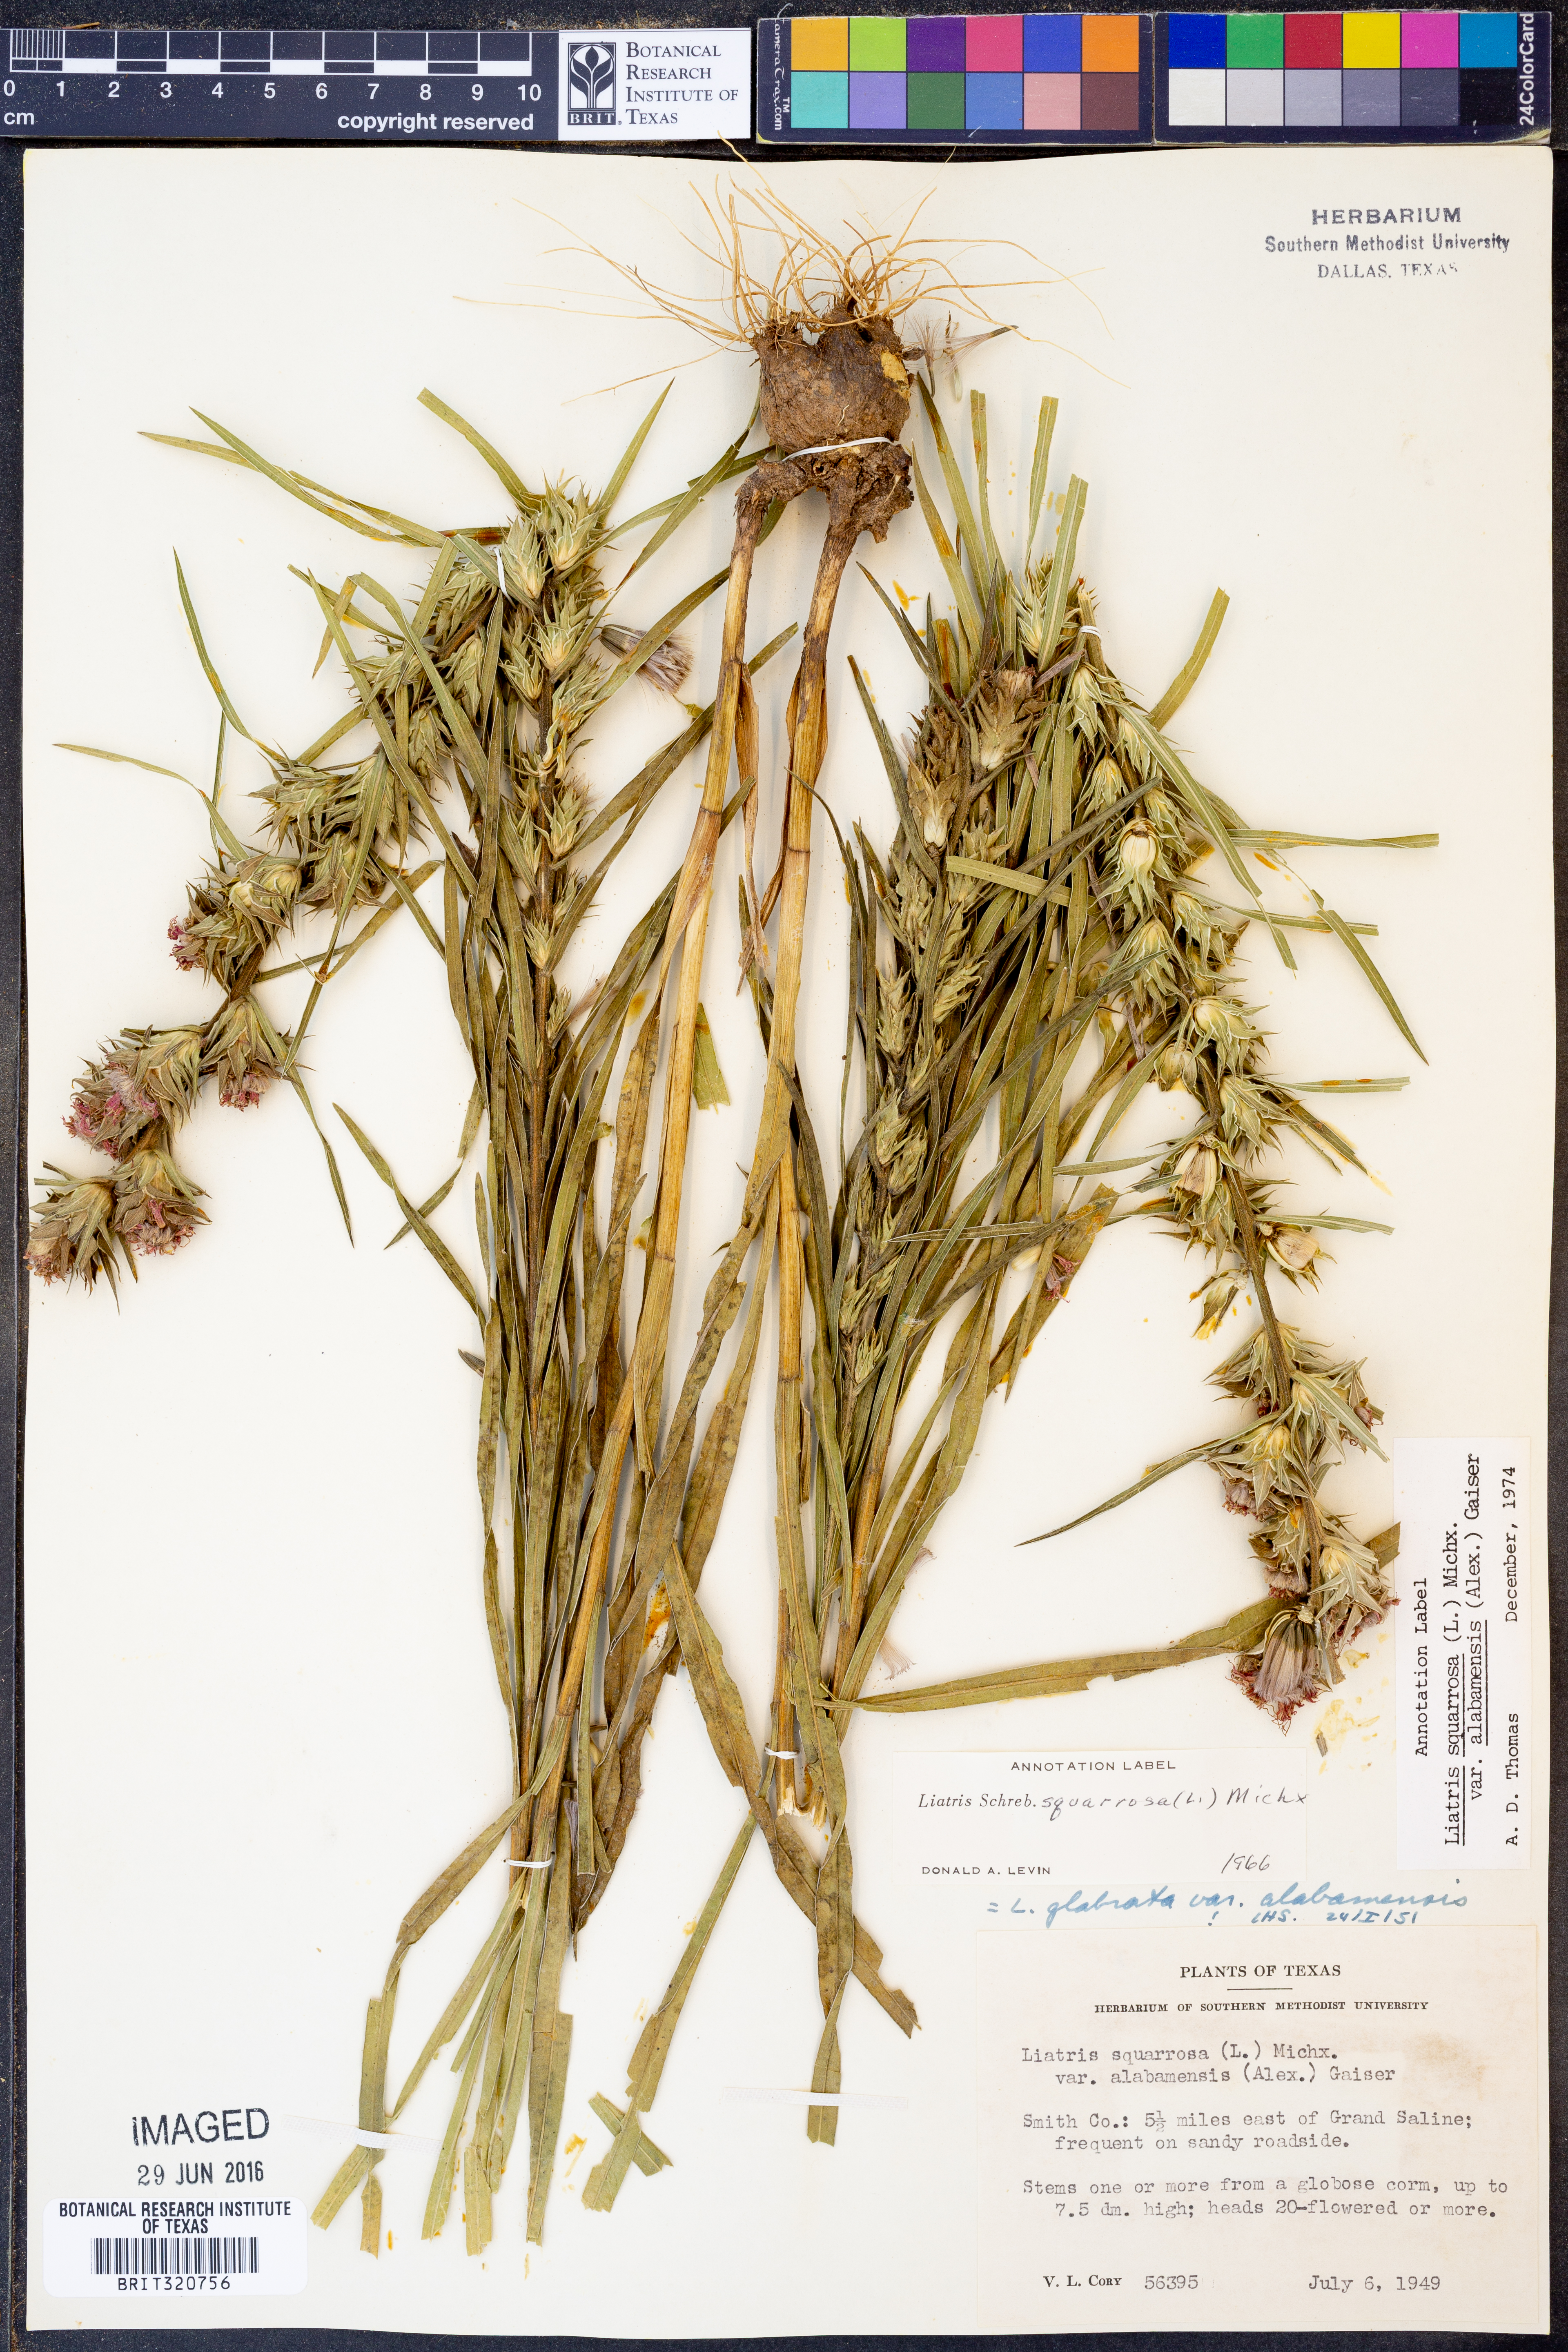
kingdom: Plantae
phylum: Tracheophyta
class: Magnoliopsida
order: Asterales
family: Asteraceae
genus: Liatris
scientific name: Liatris squarrosa
